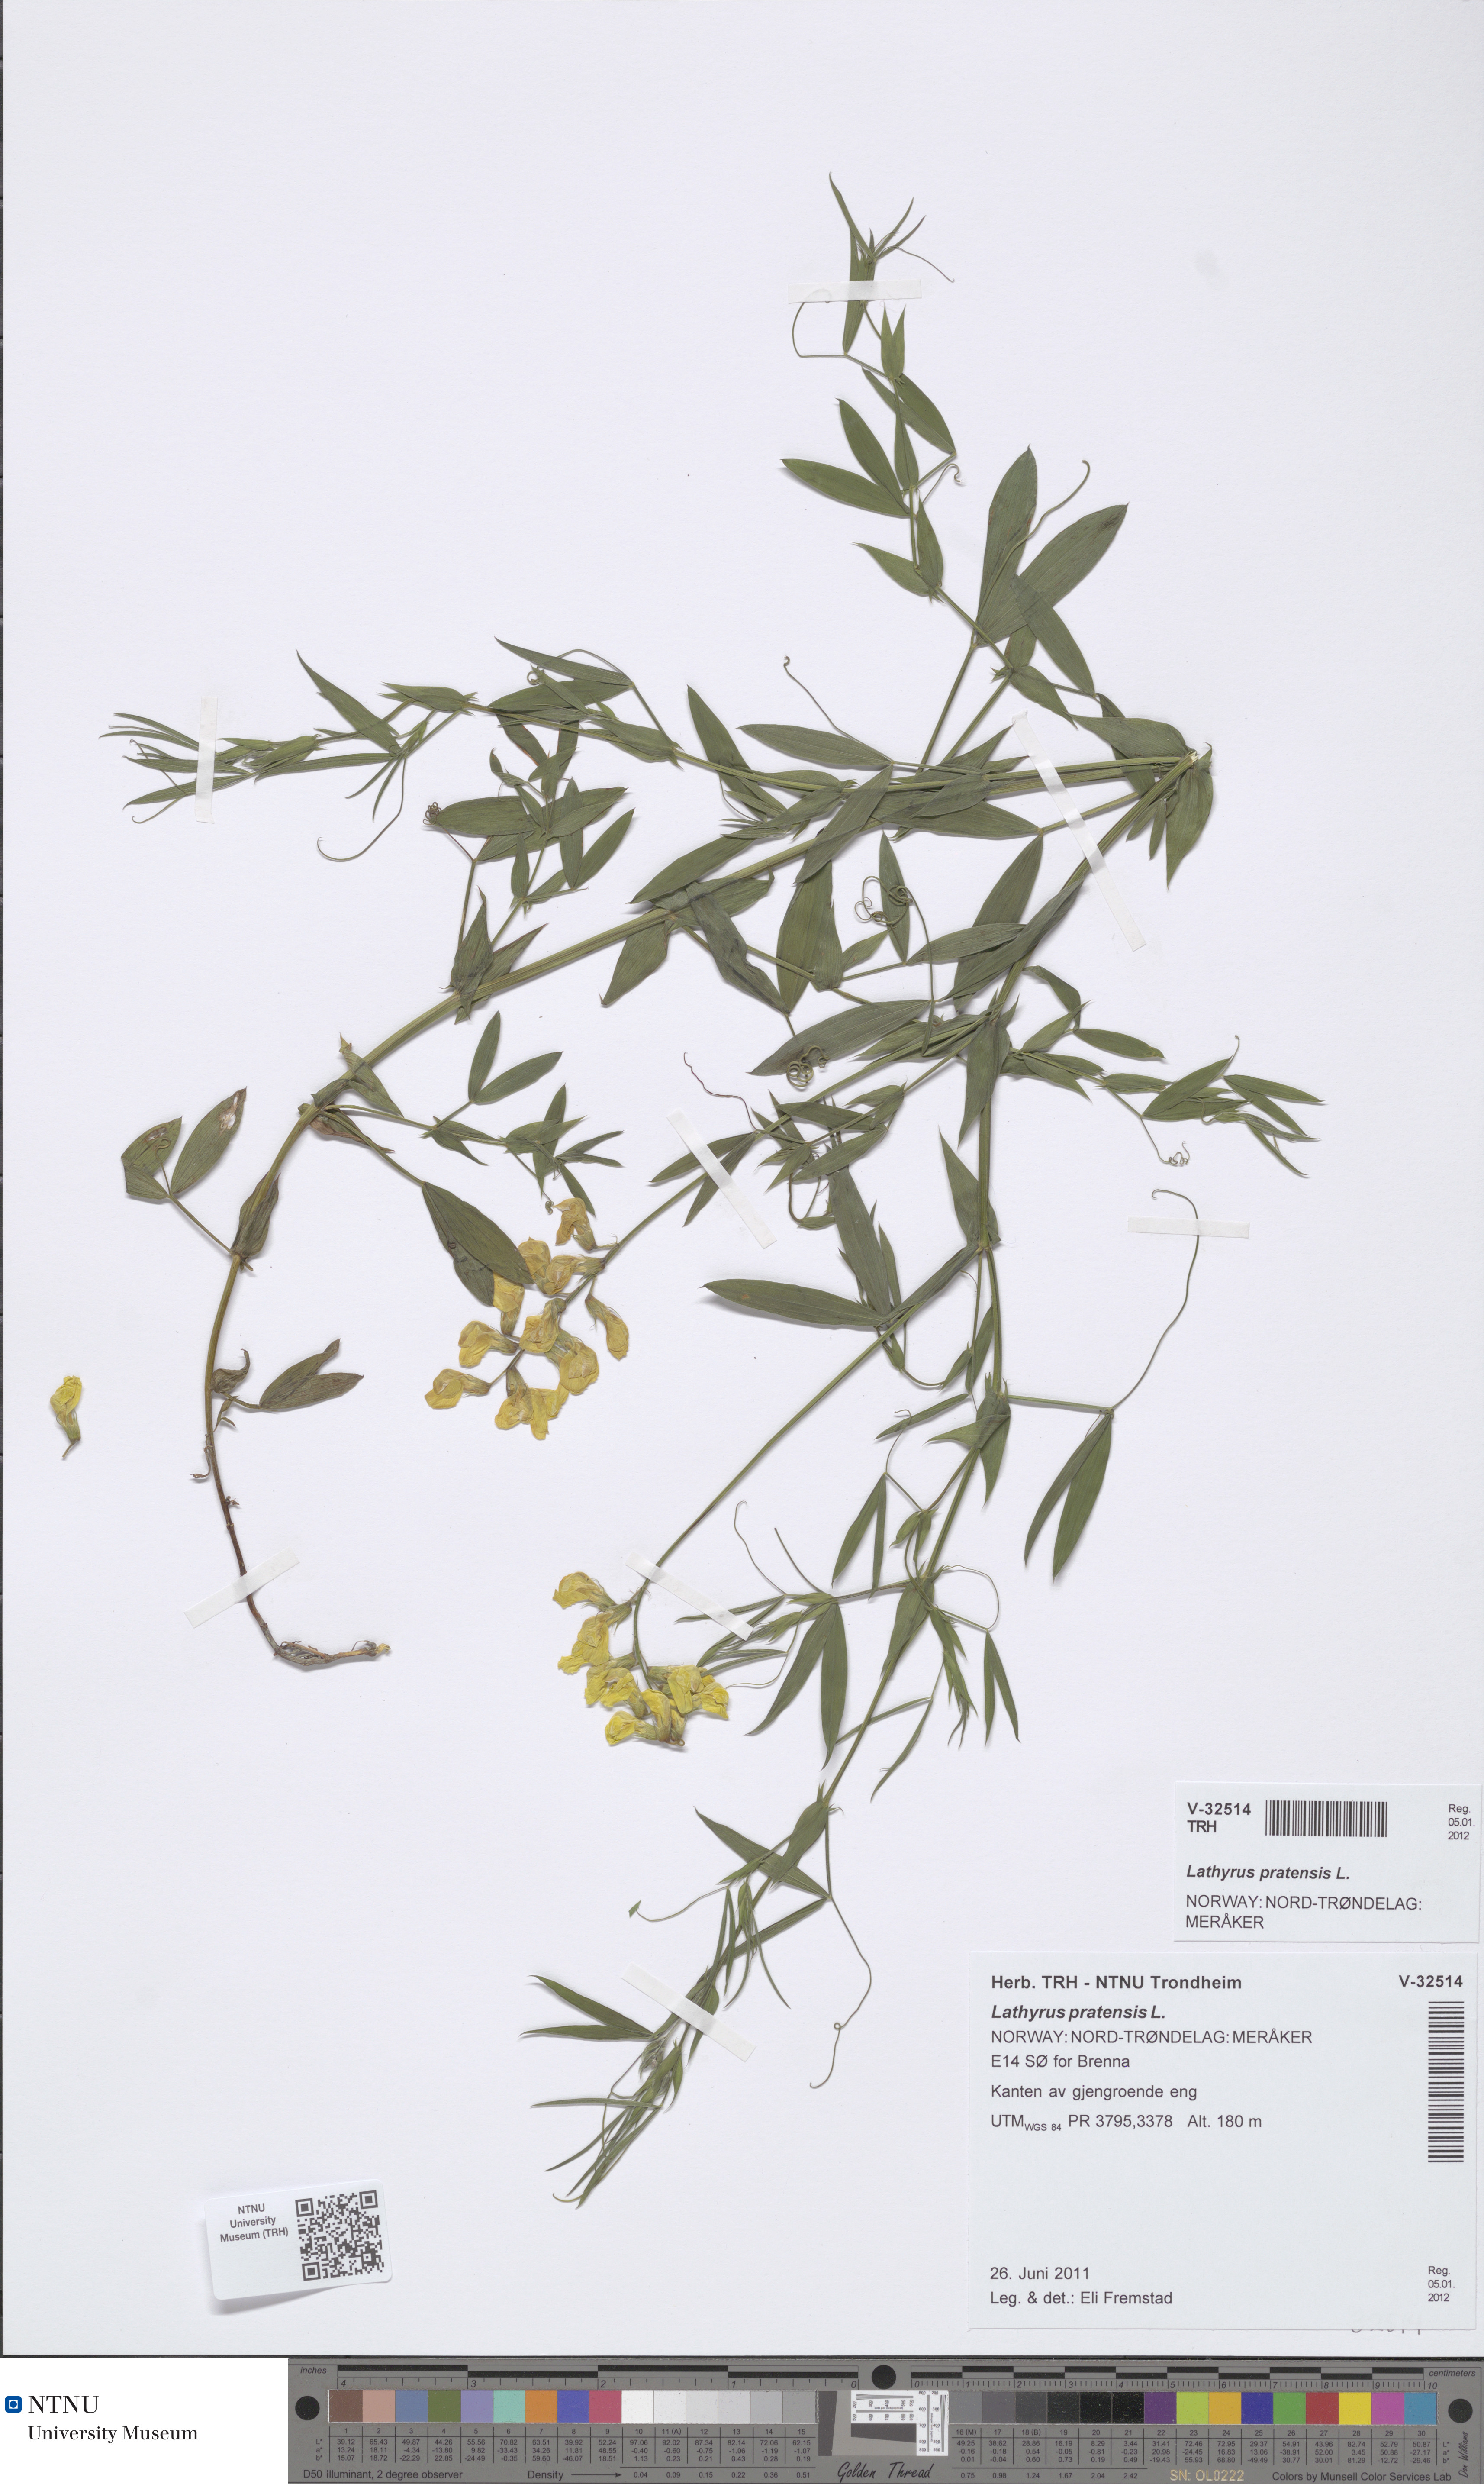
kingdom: Plantae
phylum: Tracheophyta
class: Magnoliopsida
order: Fabales
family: Fabaceae
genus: Lathyrus
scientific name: Lathyrus pratensis
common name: Meadow vetchling
